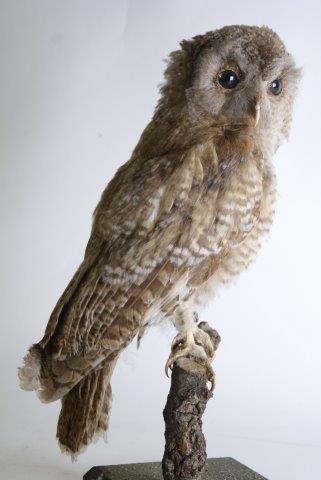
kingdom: Animalia
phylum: Chordata
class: Aves
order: Strigiformes
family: Strigidae
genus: Strix
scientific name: Strix aluco
